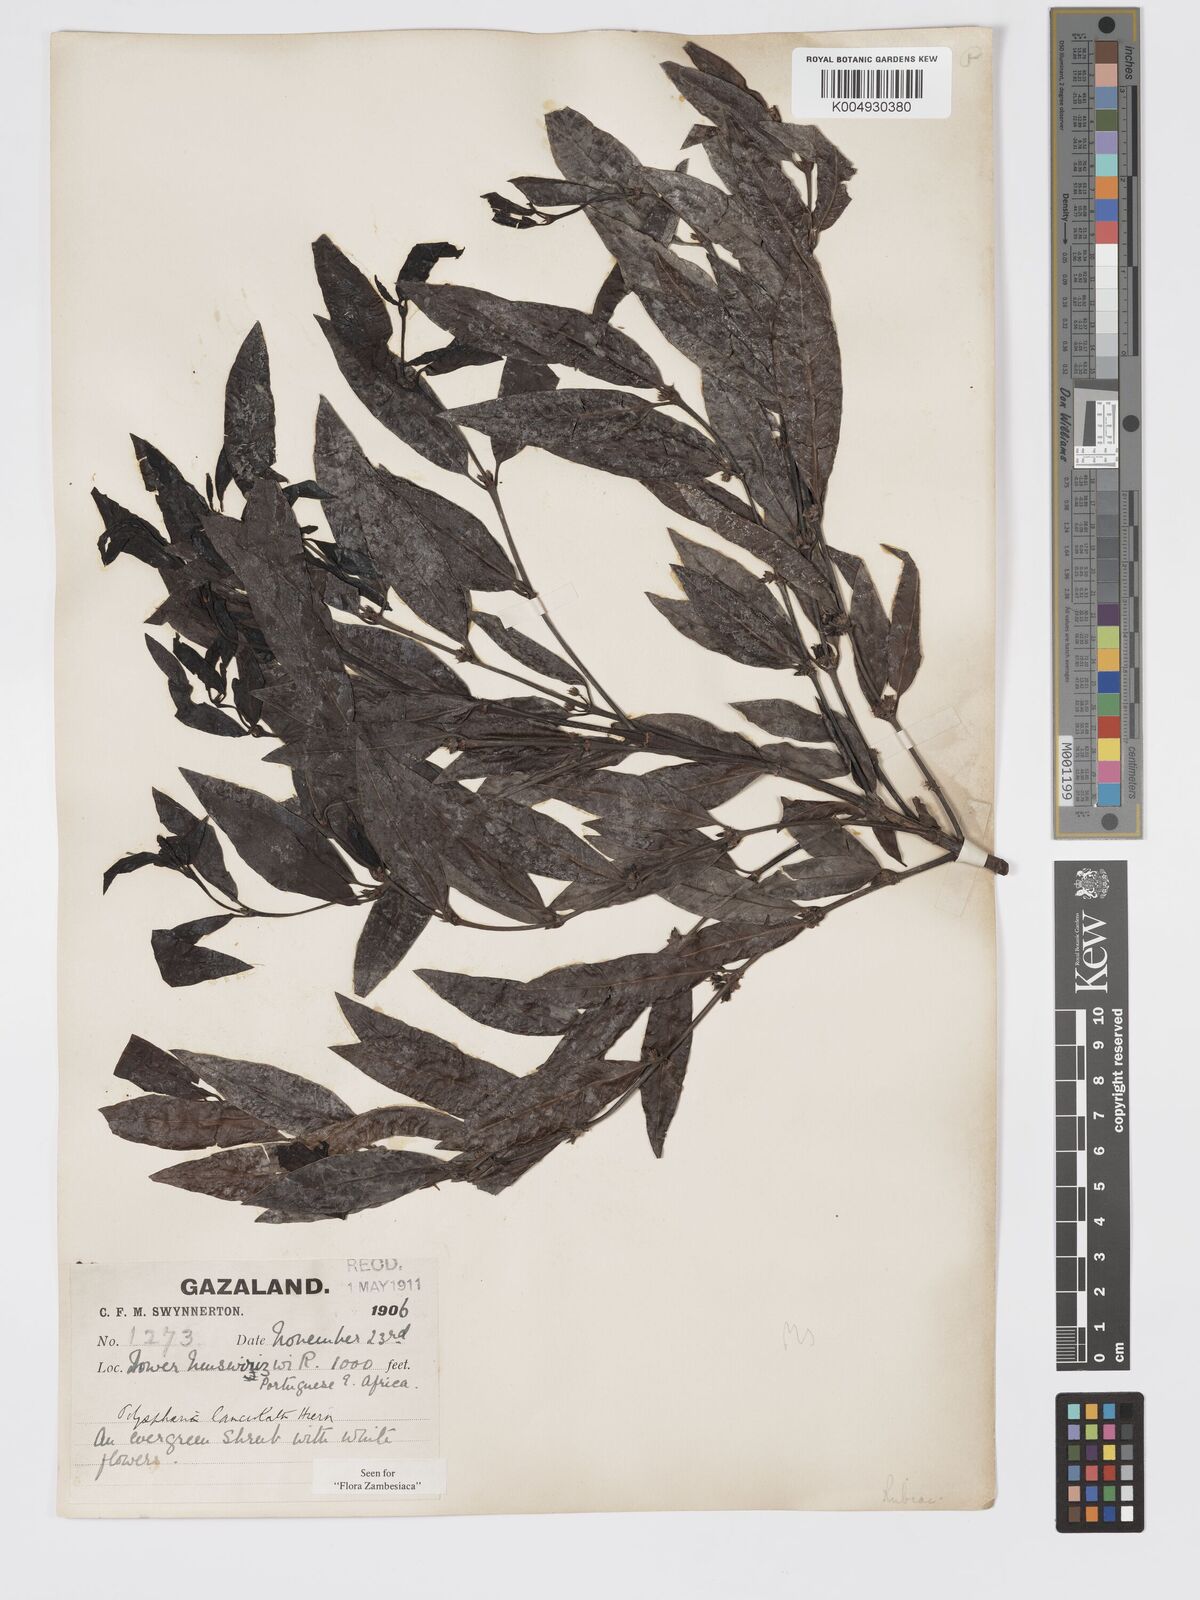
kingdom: Plantae
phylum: Tracheophyta
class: Magnoliopsida
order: Gentianales
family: Rubiaceae
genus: Polysphaeria
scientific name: Polysphaeria lanceolata
